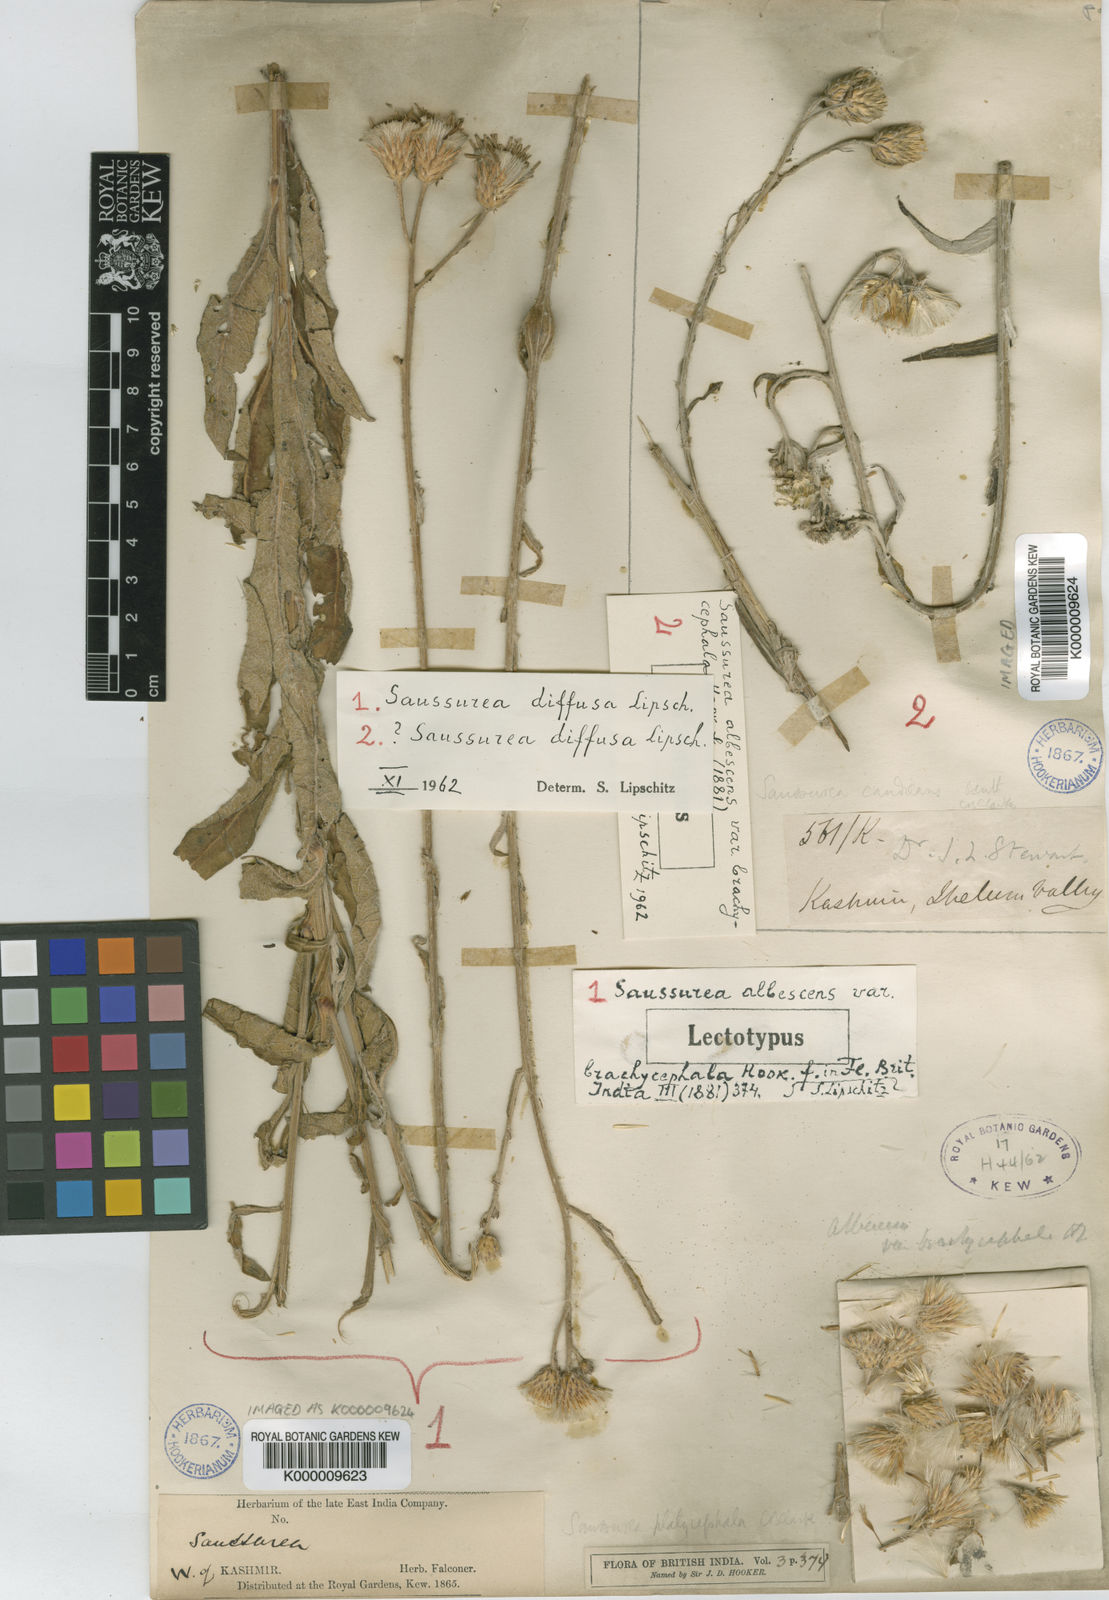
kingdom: Plantae
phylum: Tracheophyta
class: Magnoliopsida
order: Asterales
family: Asteraceae
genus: Saussurea
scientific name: Saussurea diffusa
